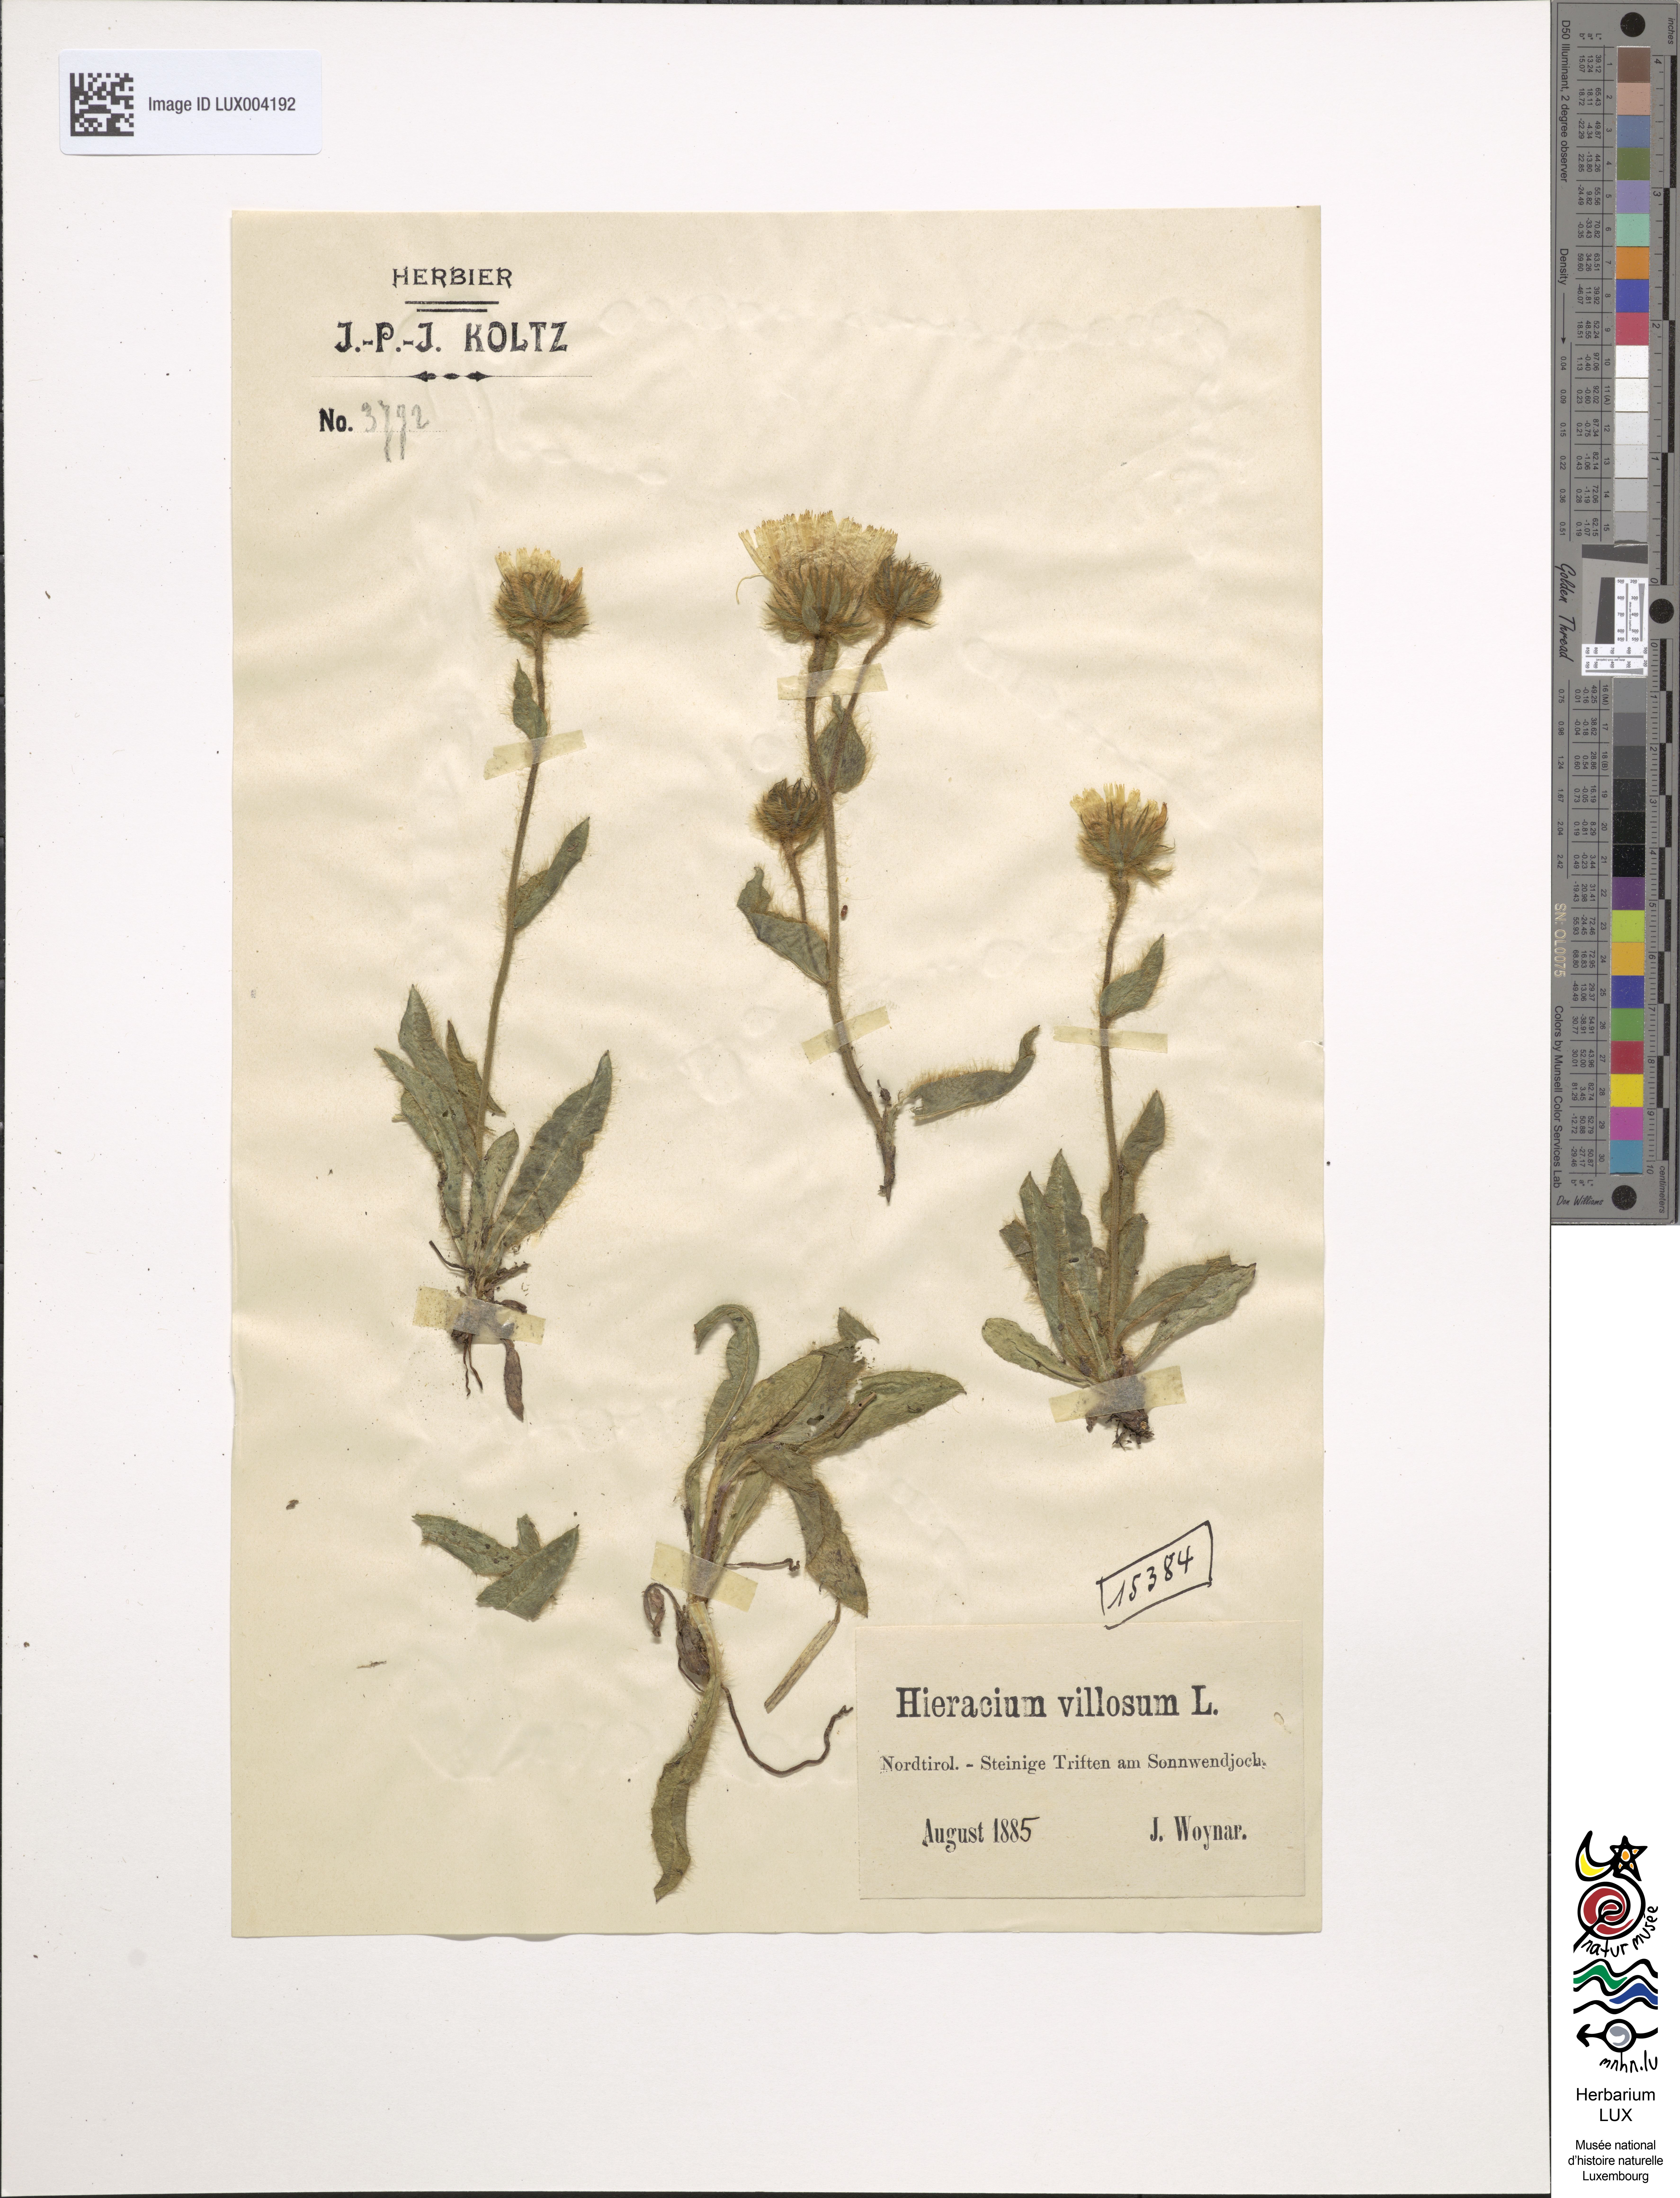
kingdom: Plantae
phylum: Tracheophyta
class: Magnoliopsida
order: Asterales
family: Asteraceae
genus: Hieracium
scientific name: Hieracium villosum
